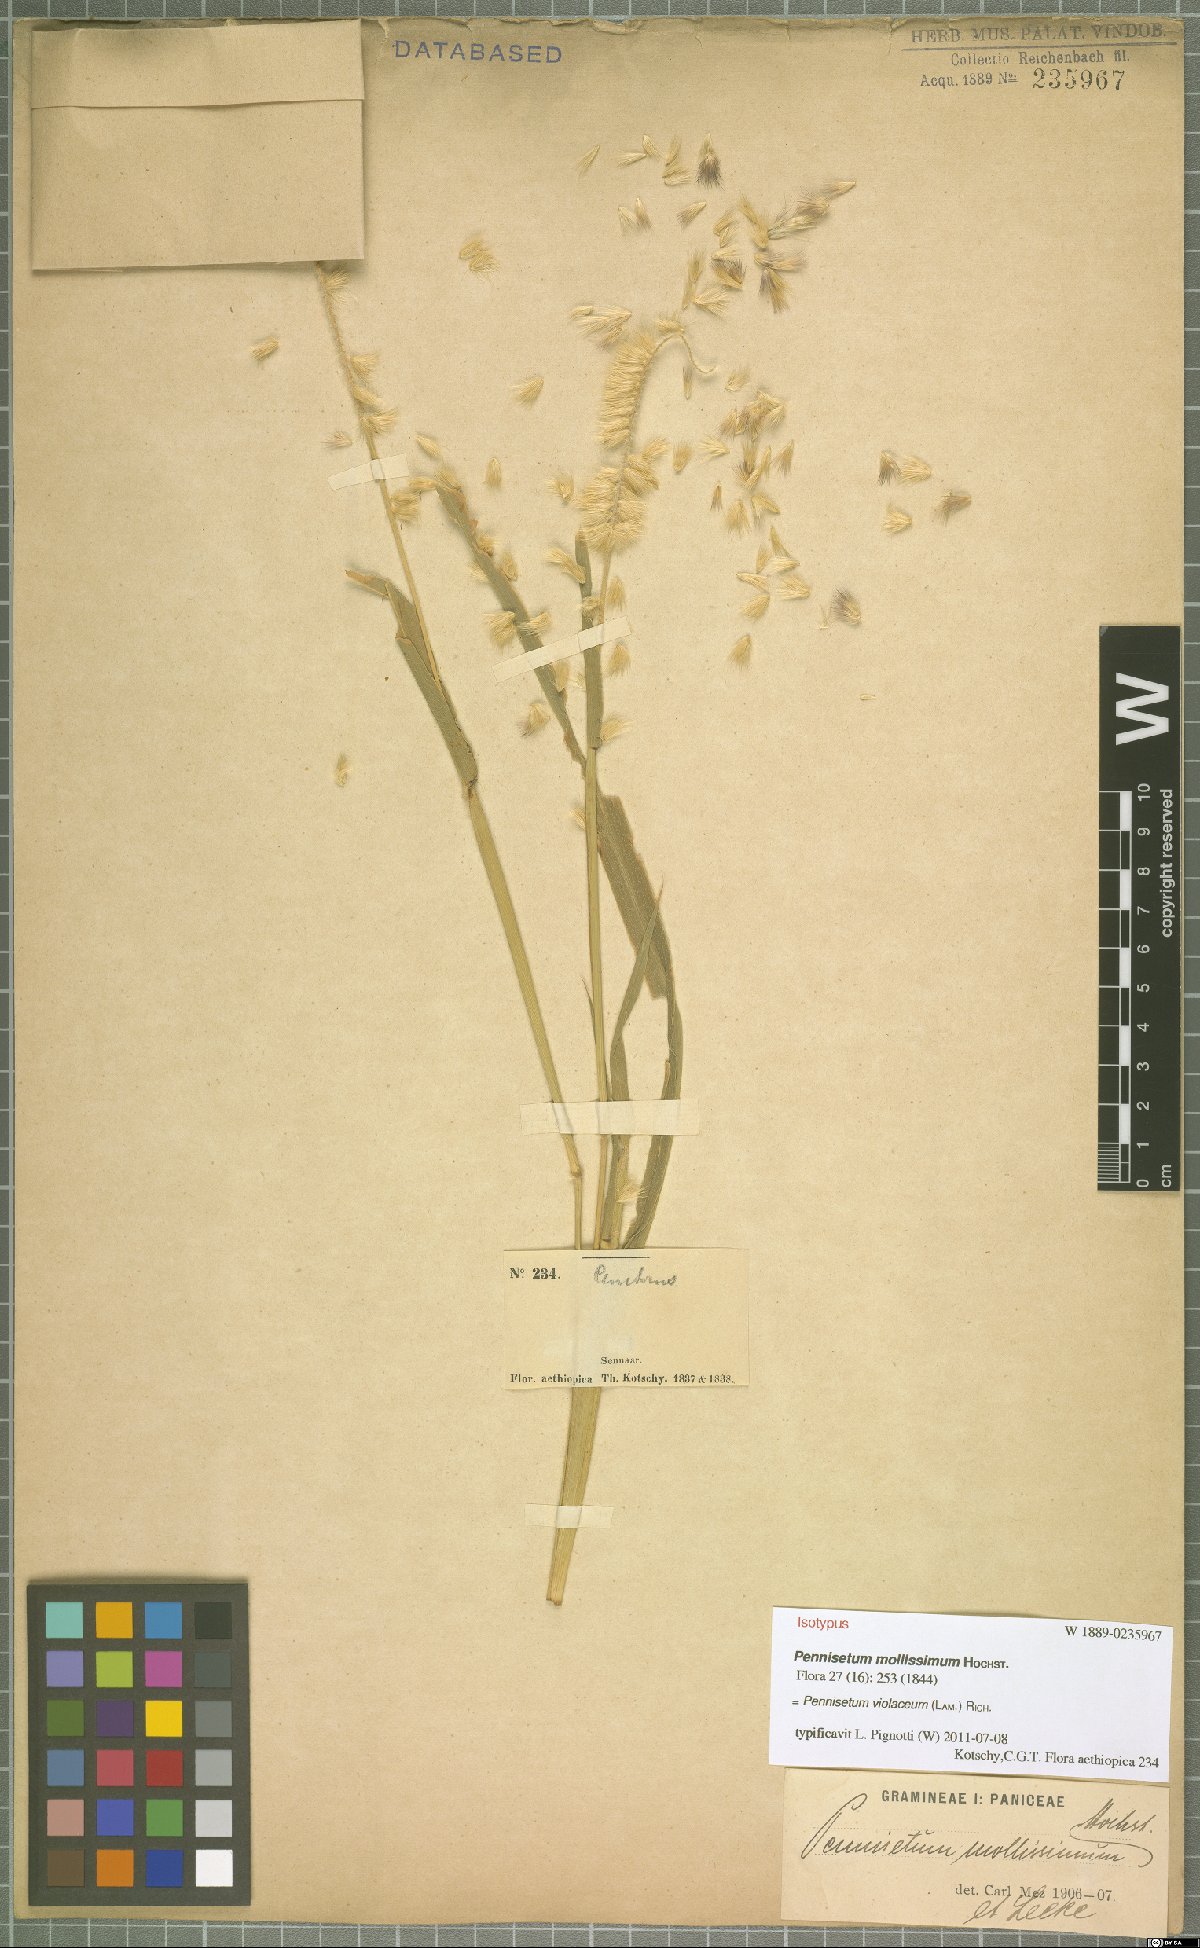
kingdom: Plantae
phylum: Tracheophyta
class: Liliopsida
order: Poales
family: Poaceae
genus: Cenchrus
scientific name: Cenchrus violaceus
